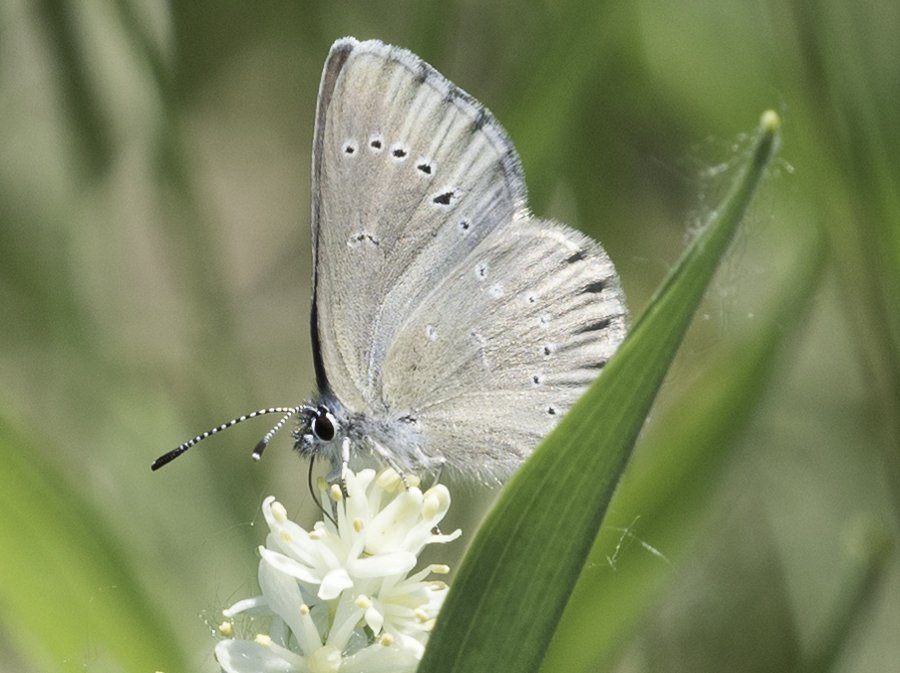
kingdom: Animalia
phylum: Arthropoda
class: Insecta
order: Lepidoptera
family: Lycaenidae
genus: Glaucopsyche
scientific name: Glaucopsyche lygdamus
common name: Silvery Blue
